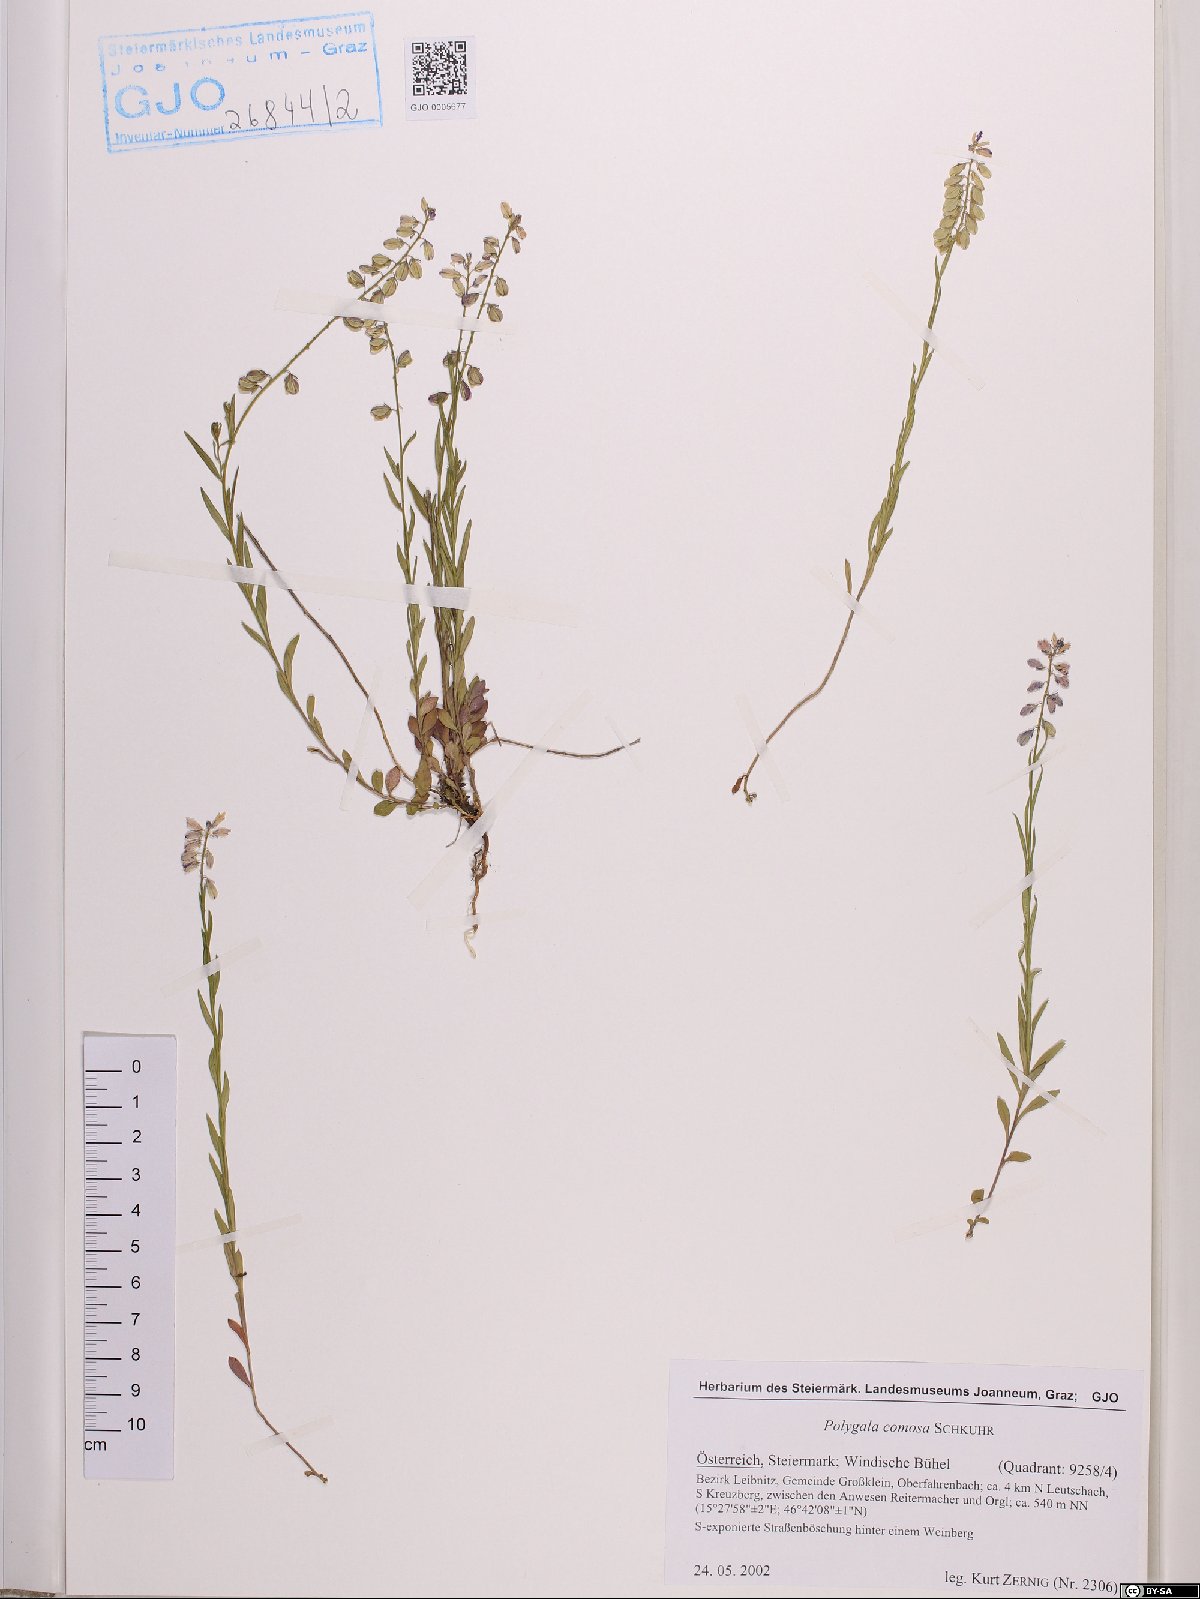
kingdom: Plantae
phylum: Tracheophyta
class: Magnoliopsida
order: Fabales
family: Polygalaceae
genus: Polygala
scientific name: Polygala comosa
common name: Tufted milkwort
